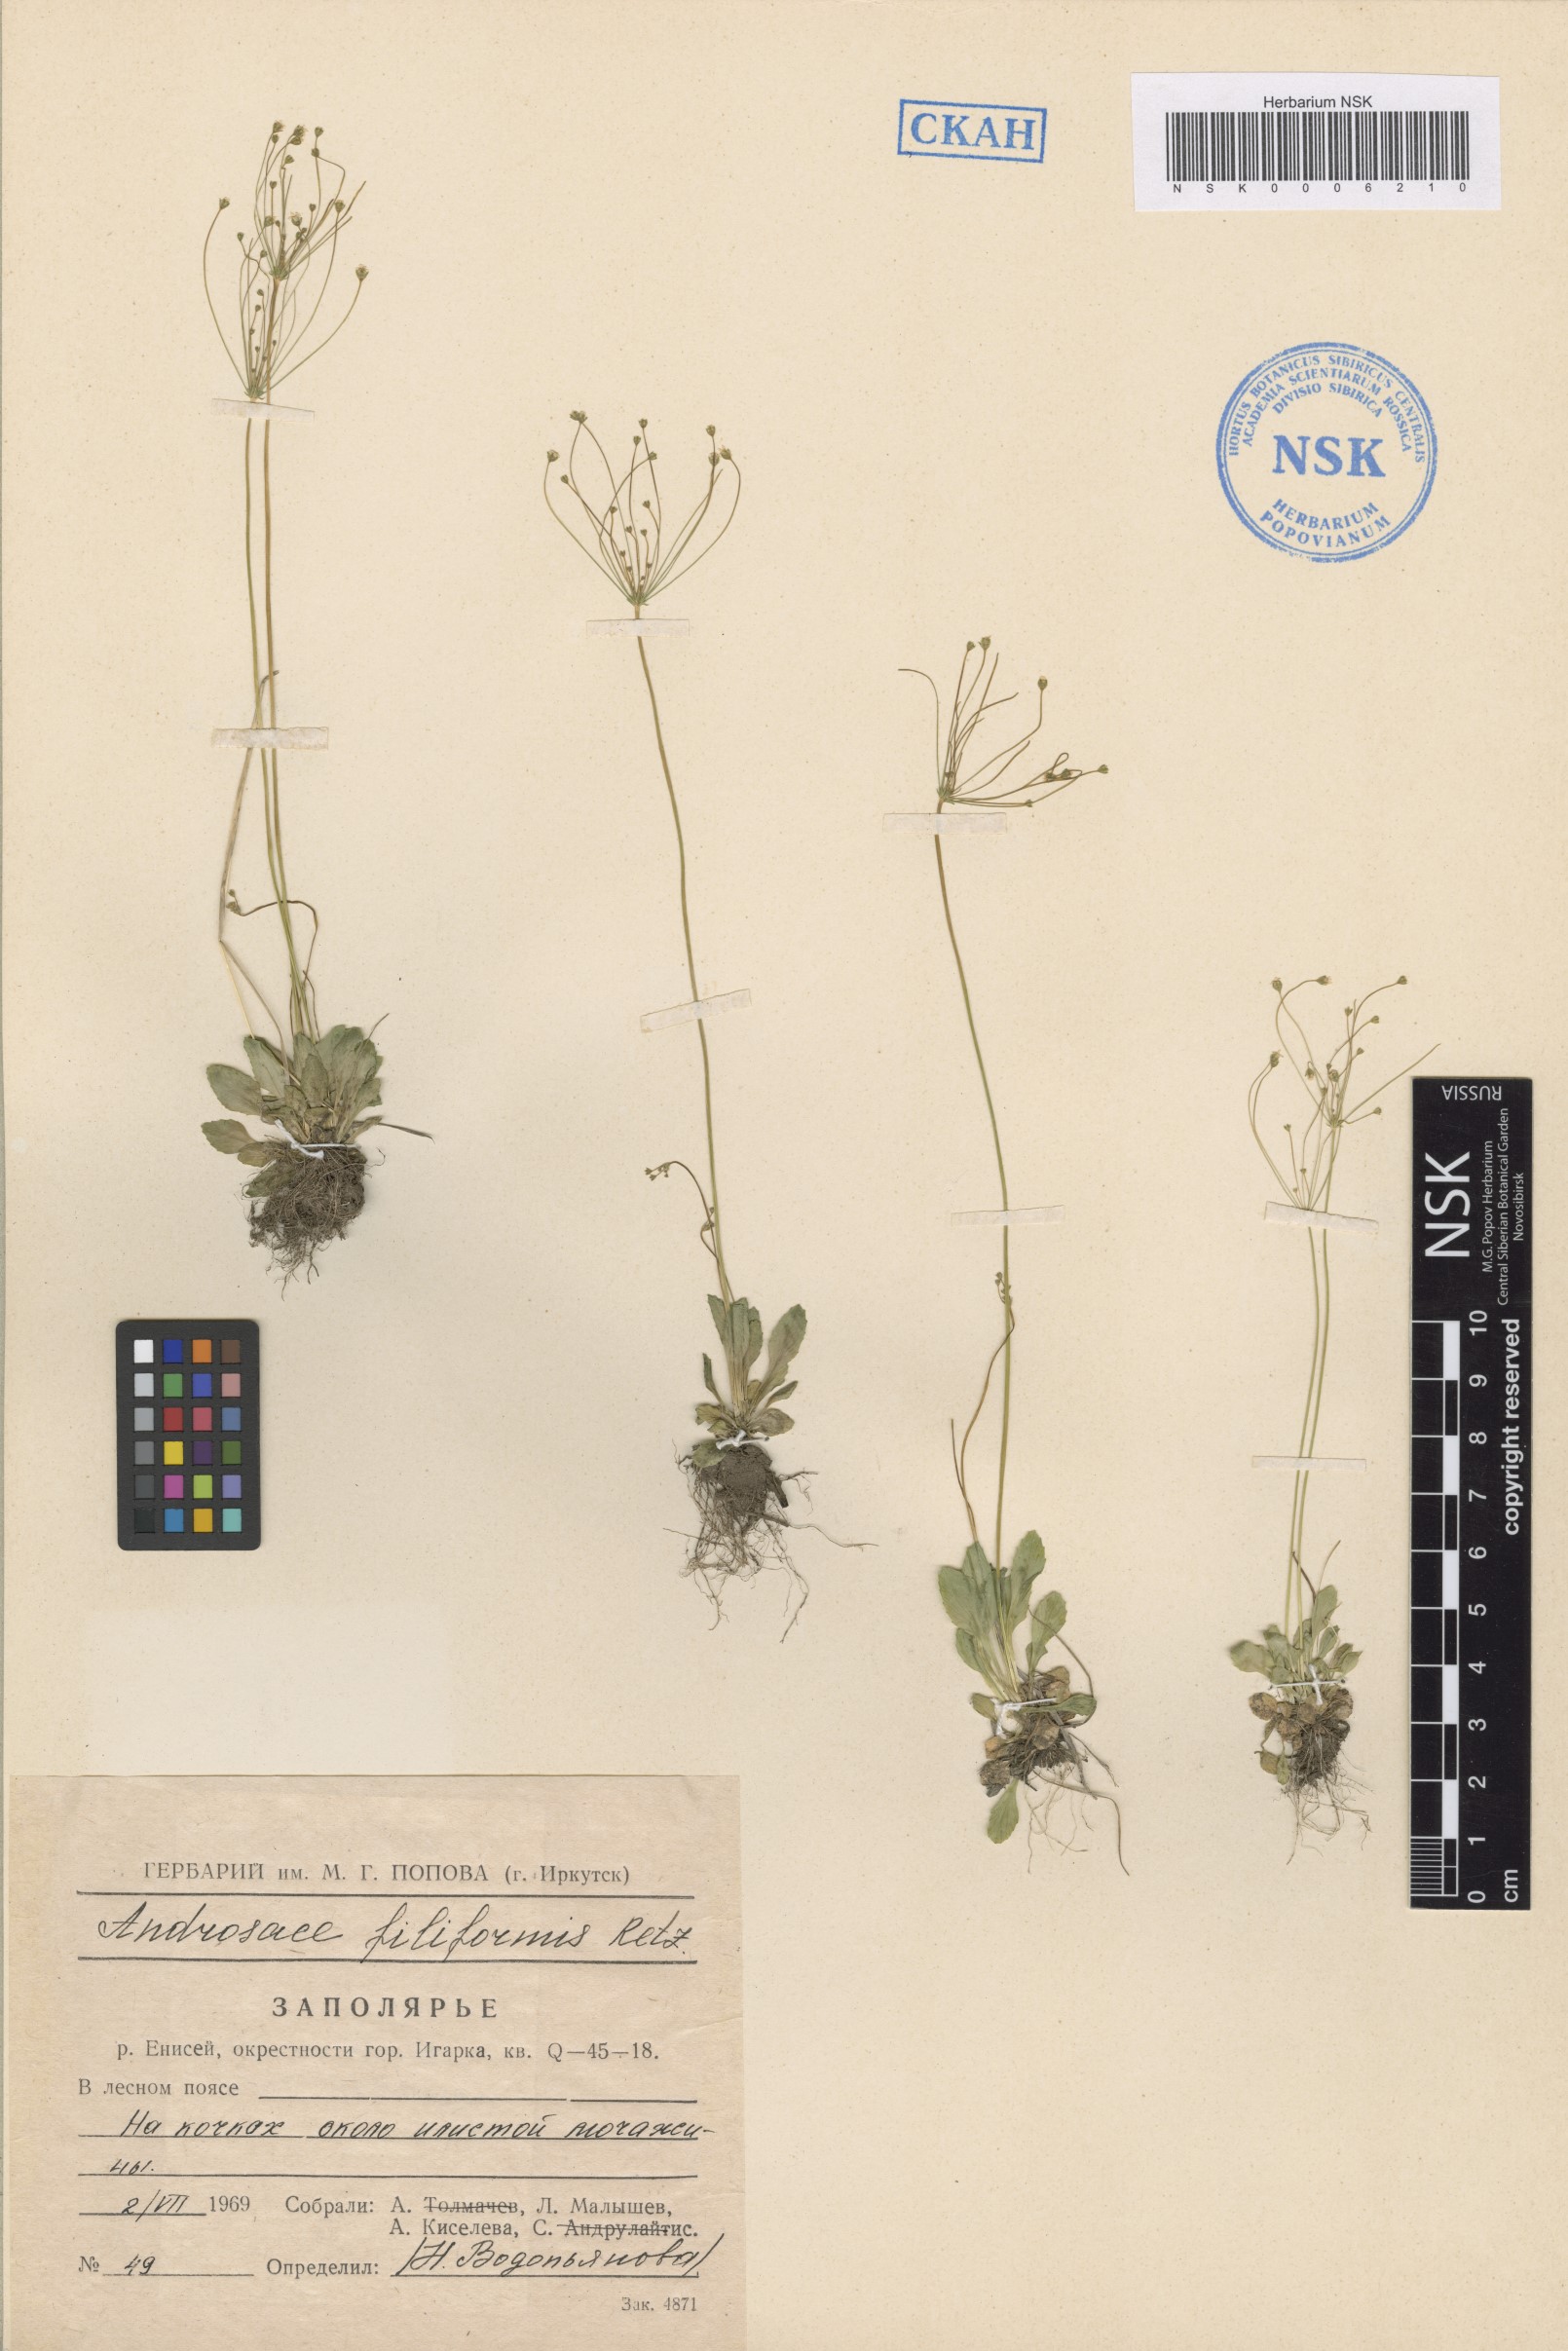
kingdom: Plantae
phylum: Tracheophyta
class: Magnoliopsida
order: Ericales
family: Primulaceae
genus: Androsace
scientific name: Androsace filiformis
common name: Filiform rock jasmine
